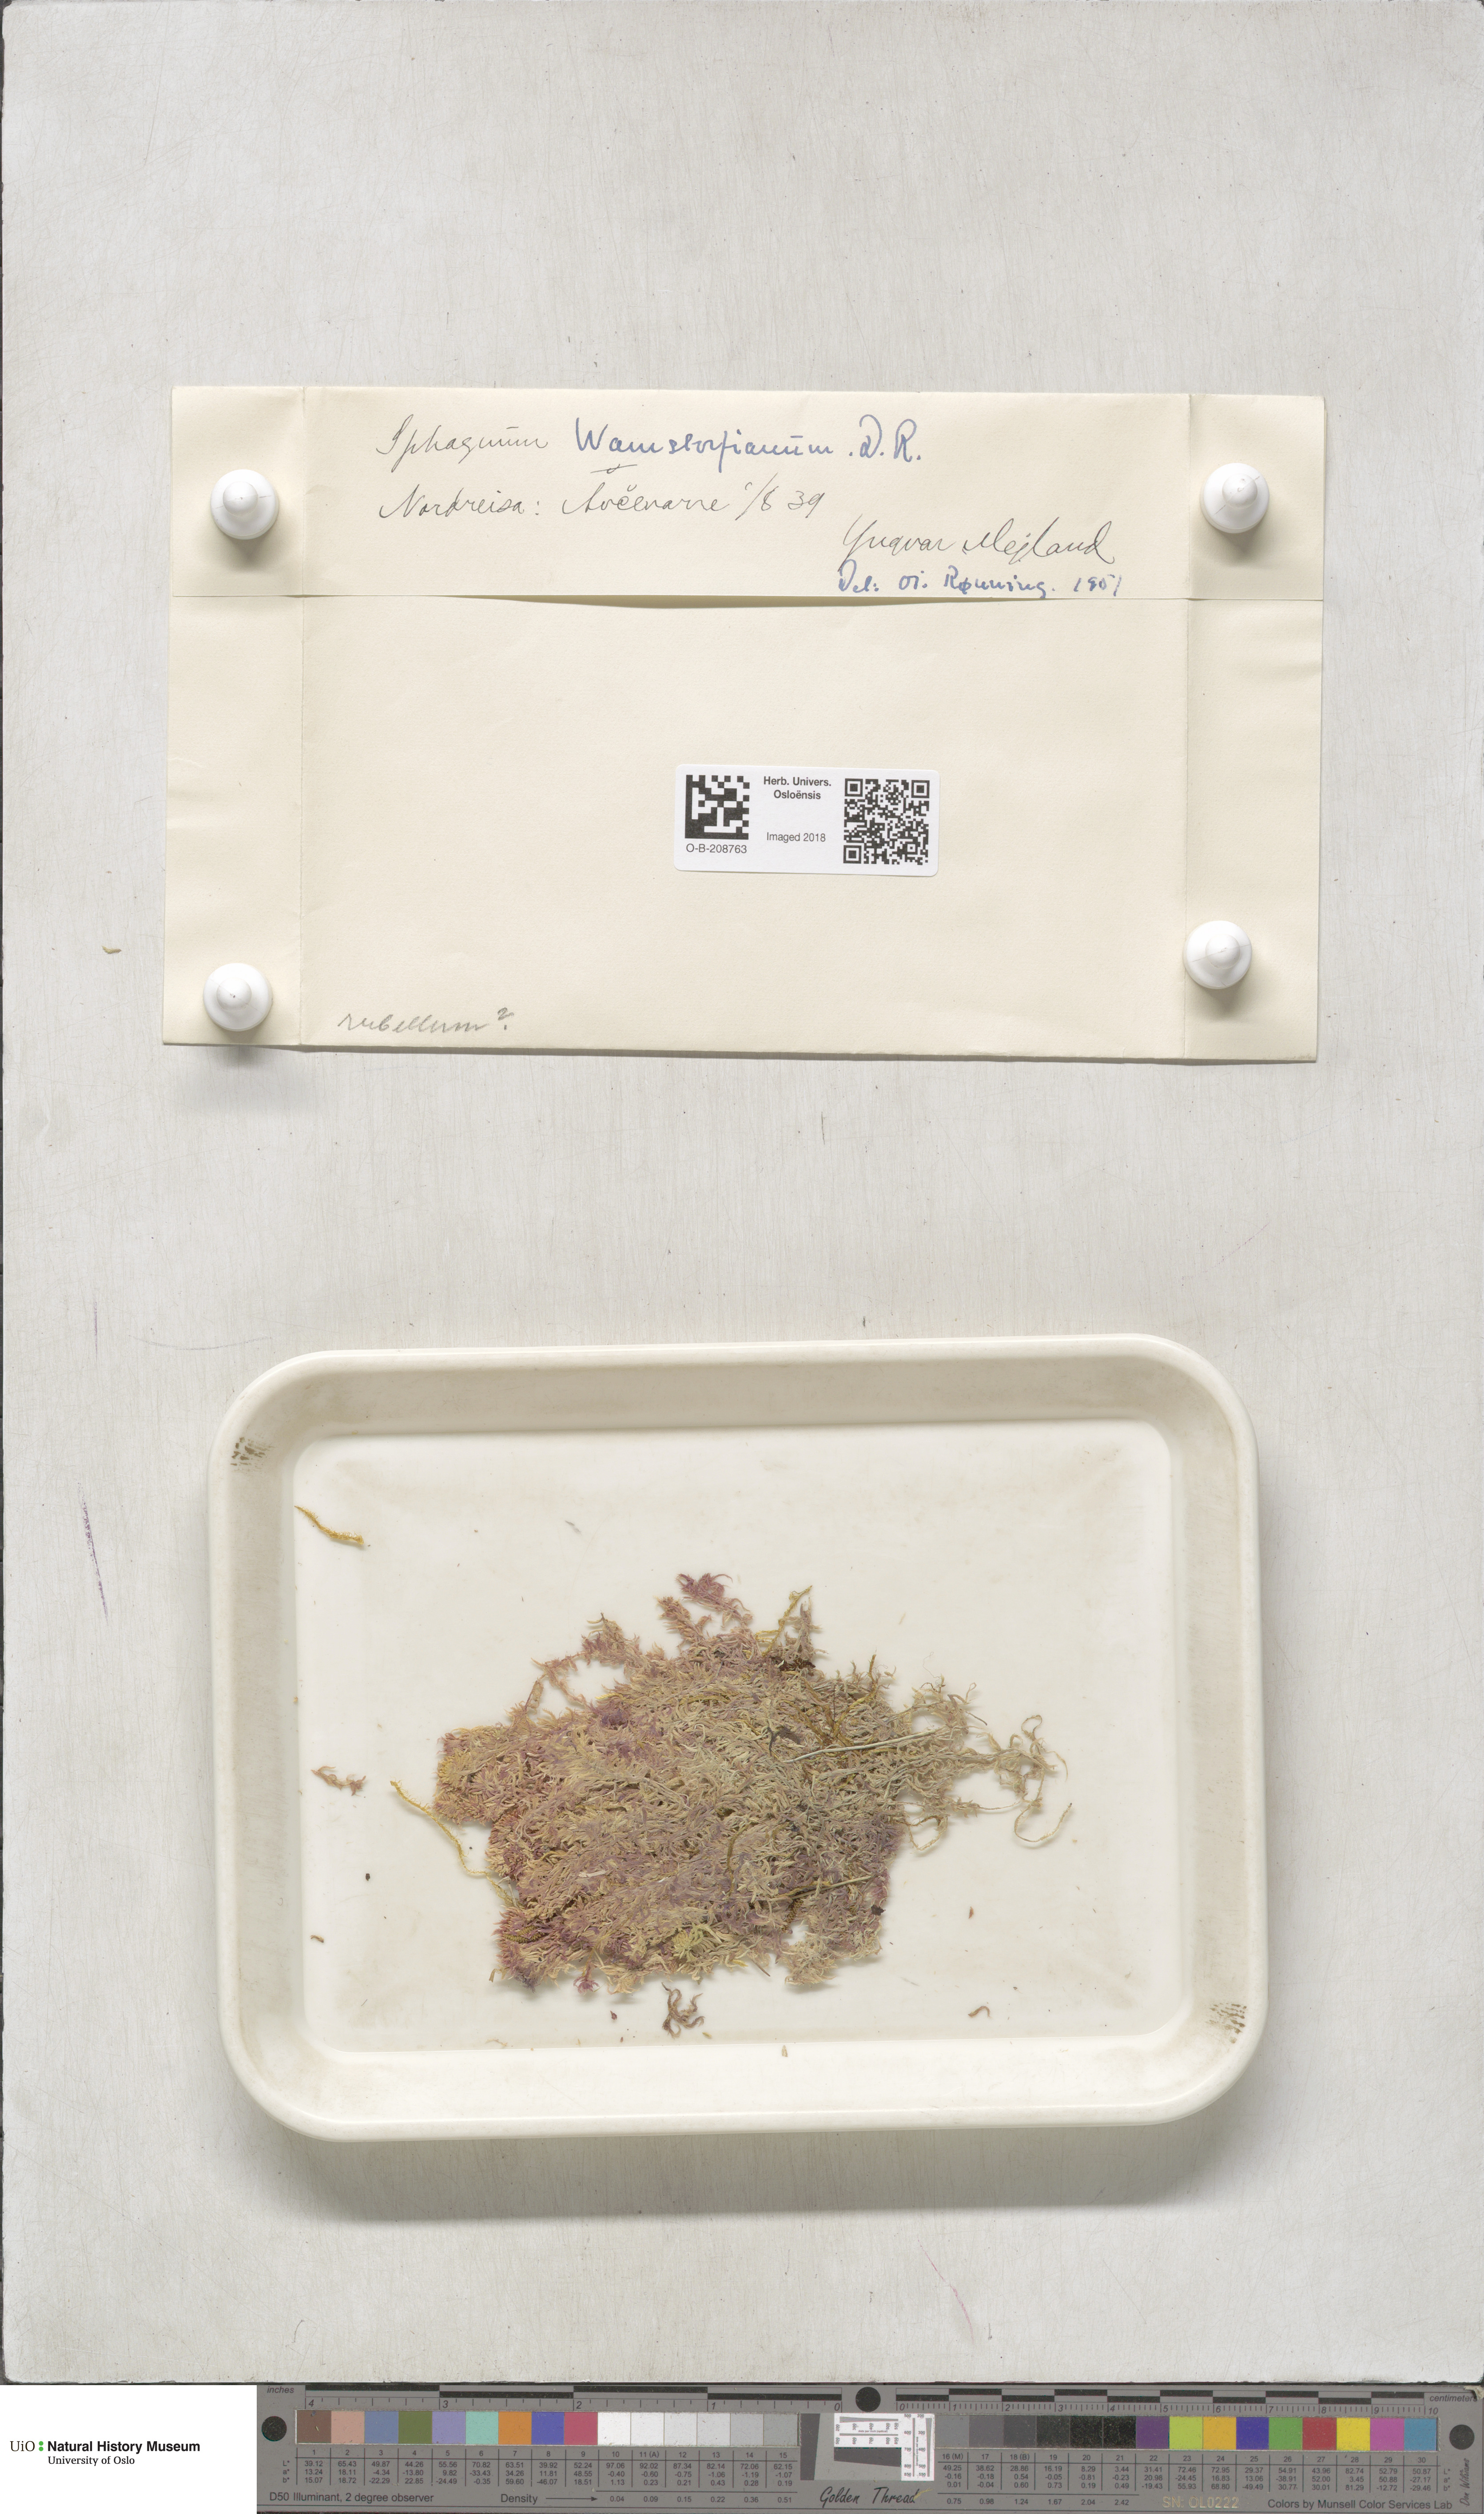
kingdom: Plantae
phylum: Bryophyta
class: Sphagnopsida
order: Sphagnales
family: Sphagnaceae
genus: Sphagnum
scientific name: Sphagnum warnstorfii
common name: Warnstorf's peat moss
